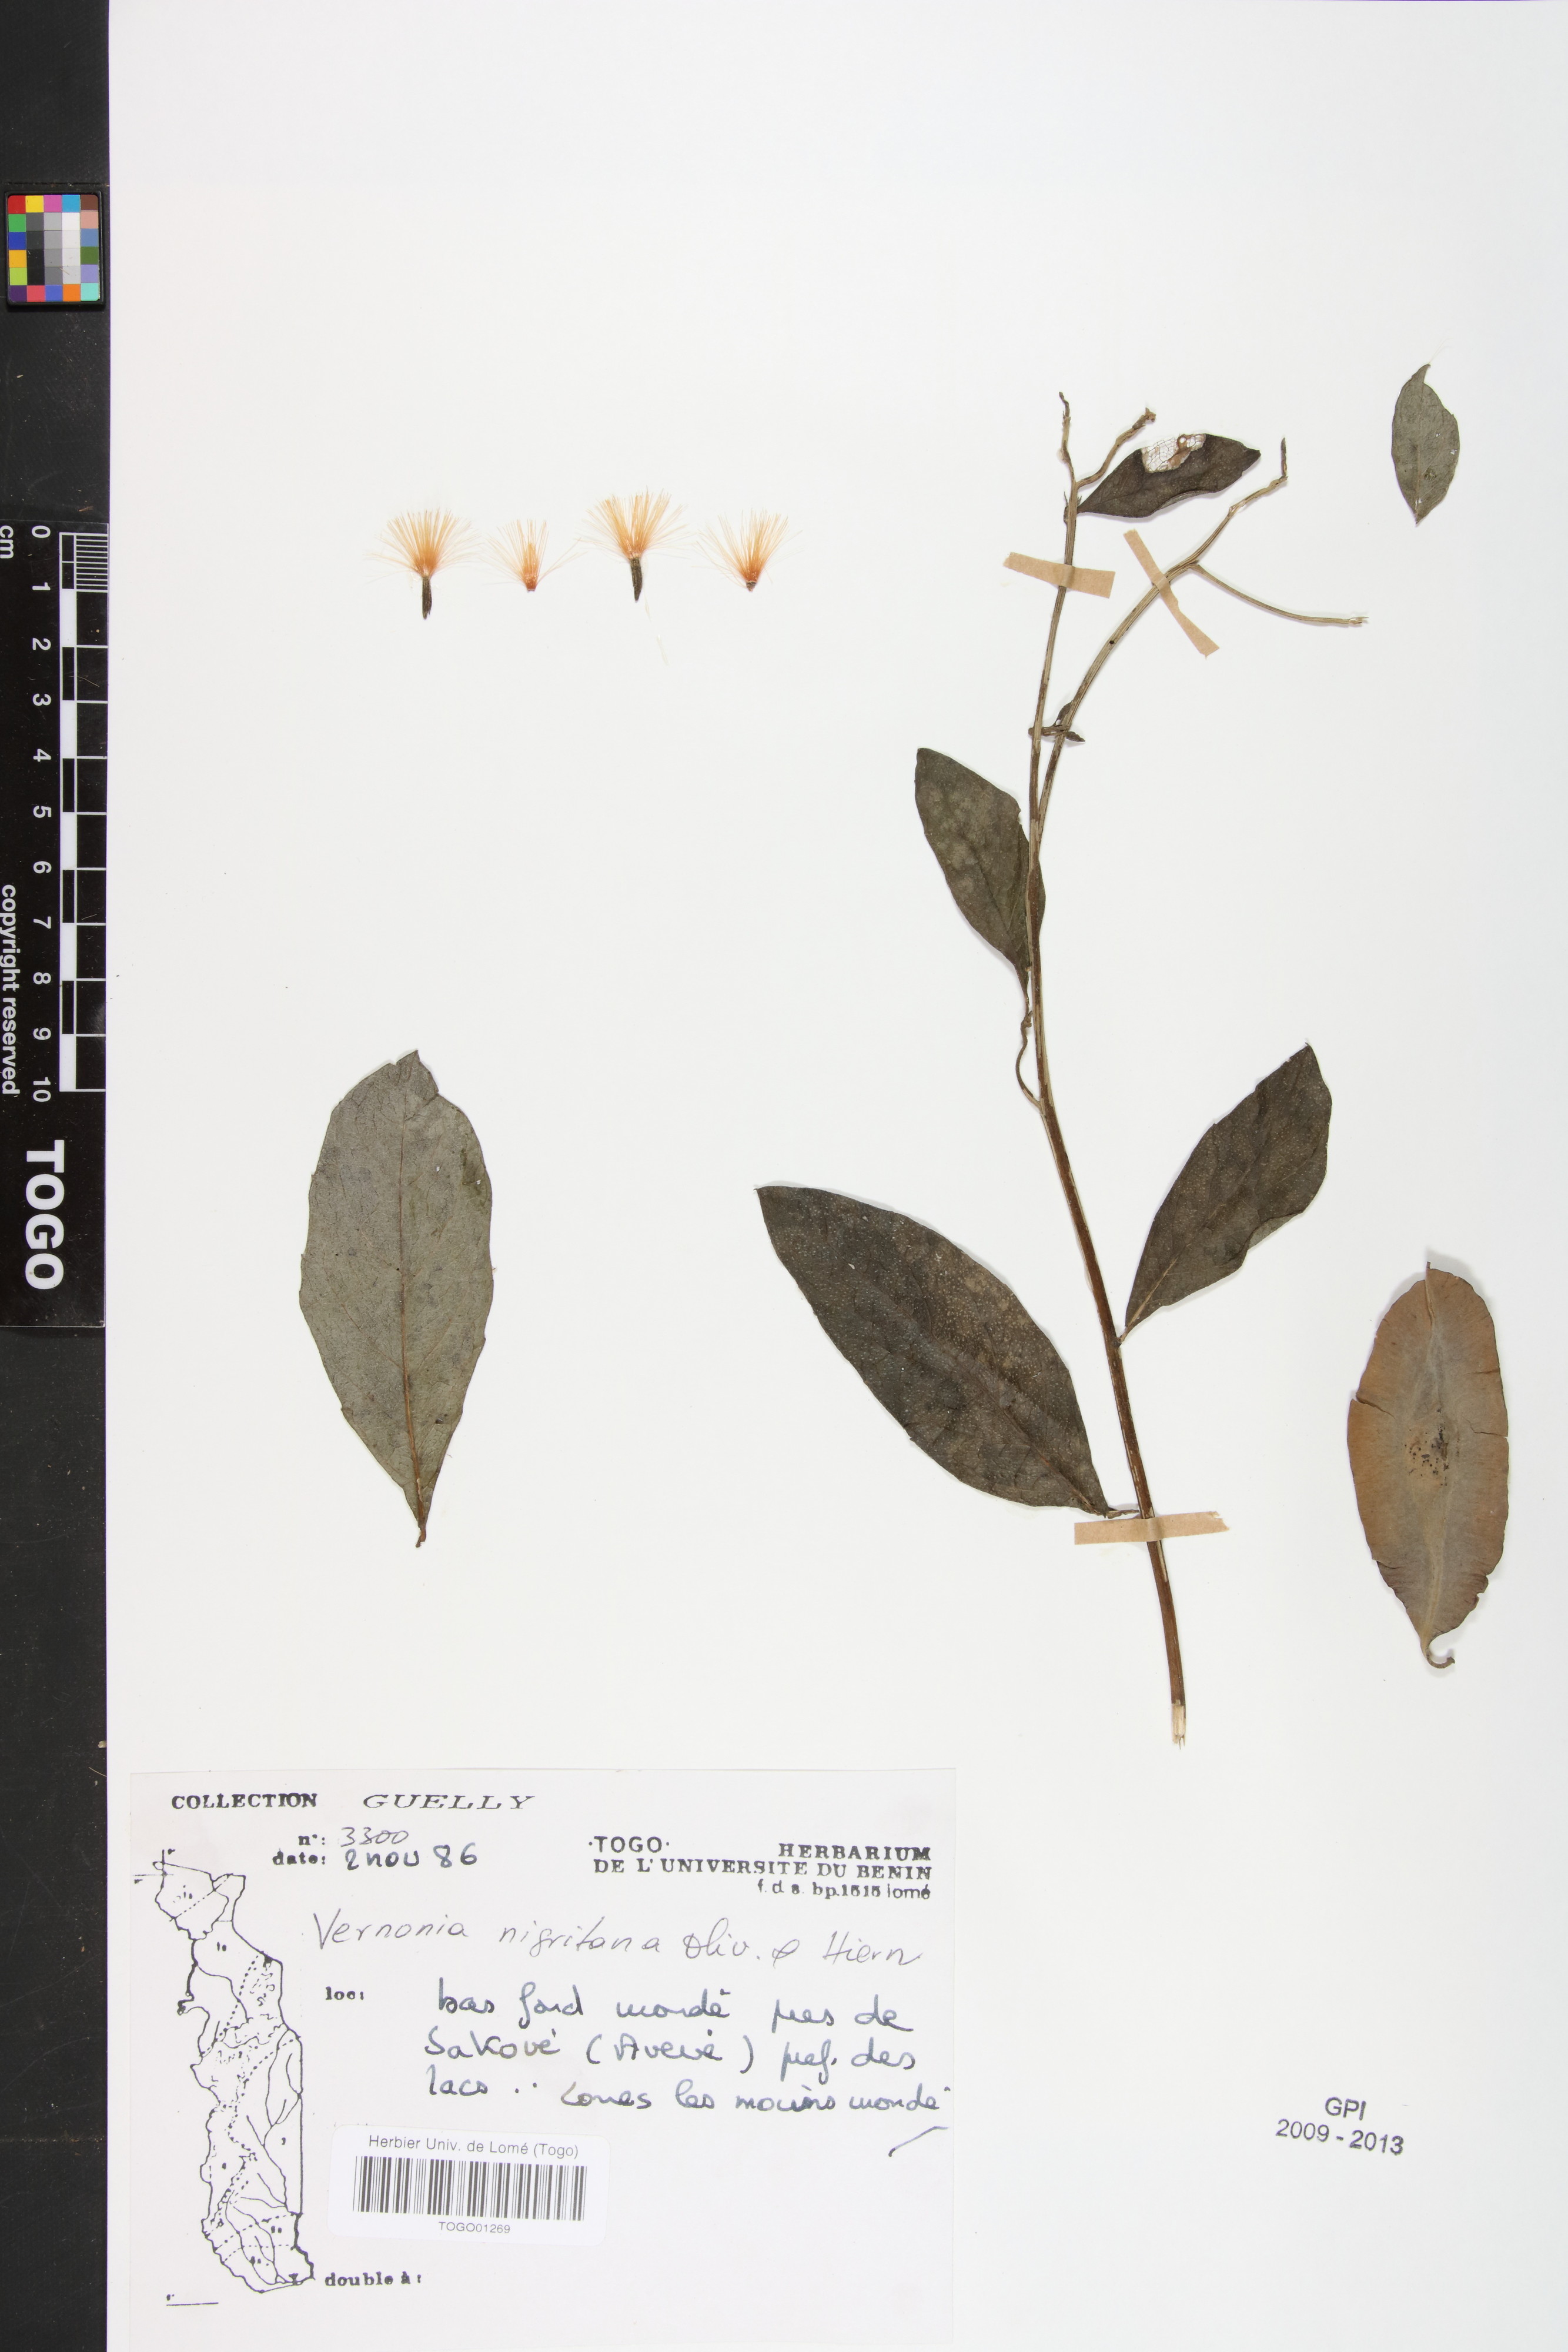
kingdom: Plantae
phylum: Tracheophyta
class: Magnoliopsida
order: Asterales
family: Asteraceae
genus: Linzia
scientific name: Linzia nigritiana
